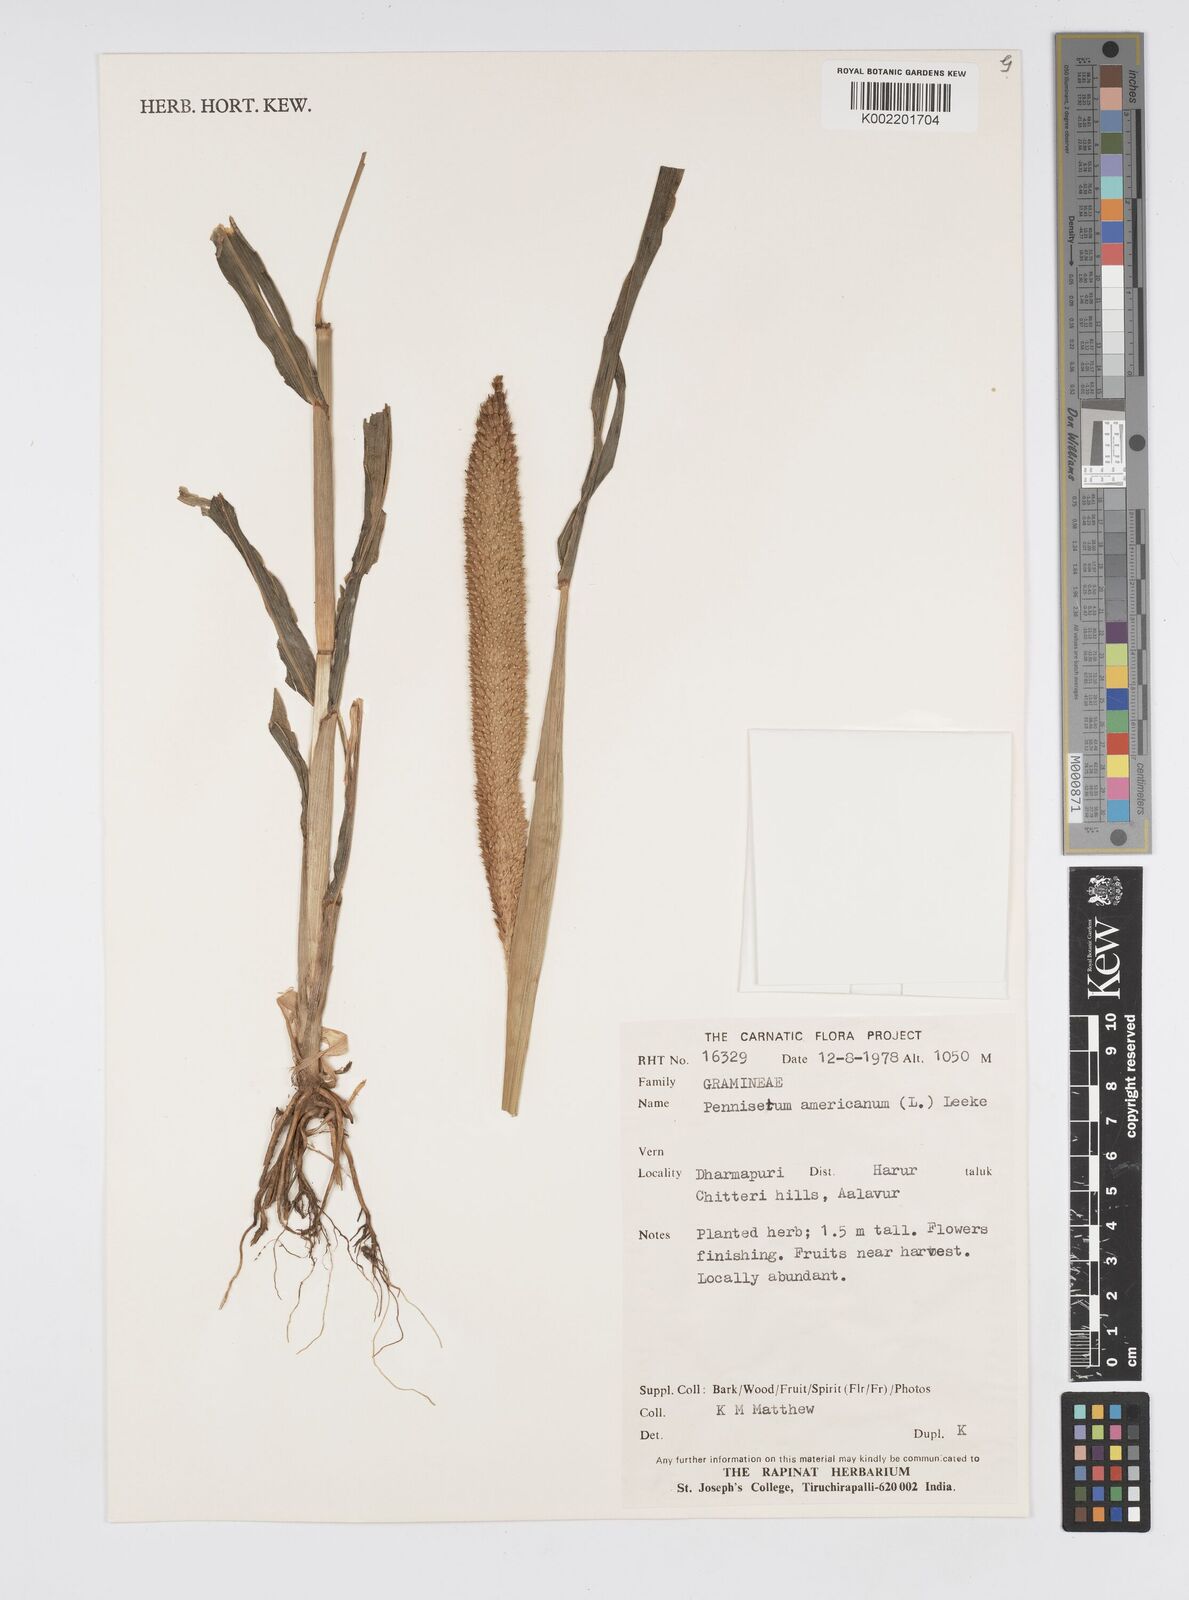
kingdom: Plantae
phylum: Tracheophyta
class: Liliopsida
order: Poales
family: Poaceae
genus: Cenchrus
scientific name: Cenchrus Pennisetum spec
